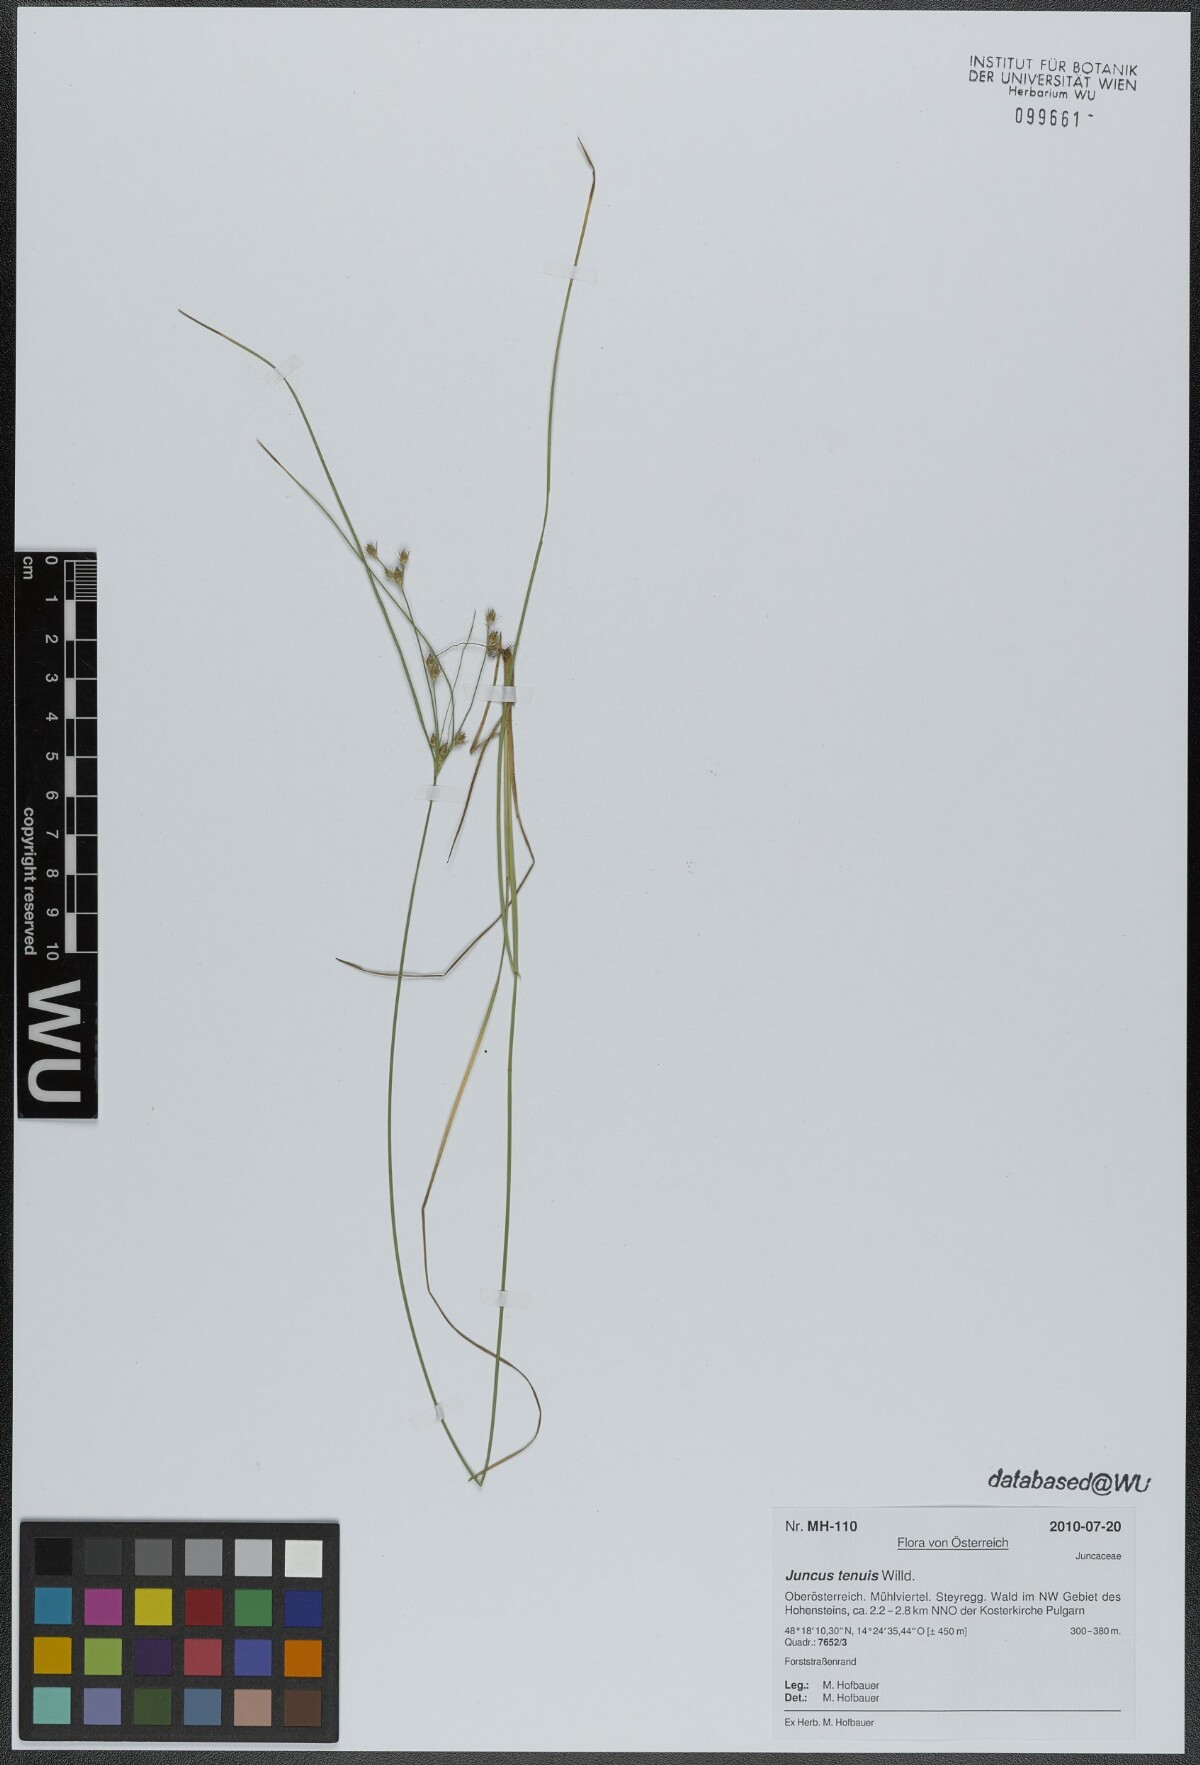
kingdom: Plantae
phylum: Tracheophyta
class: Liliopsida
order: Poales
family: Juncaceae
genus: Juncus
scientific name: Juncus tenuis
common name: Slender rush
